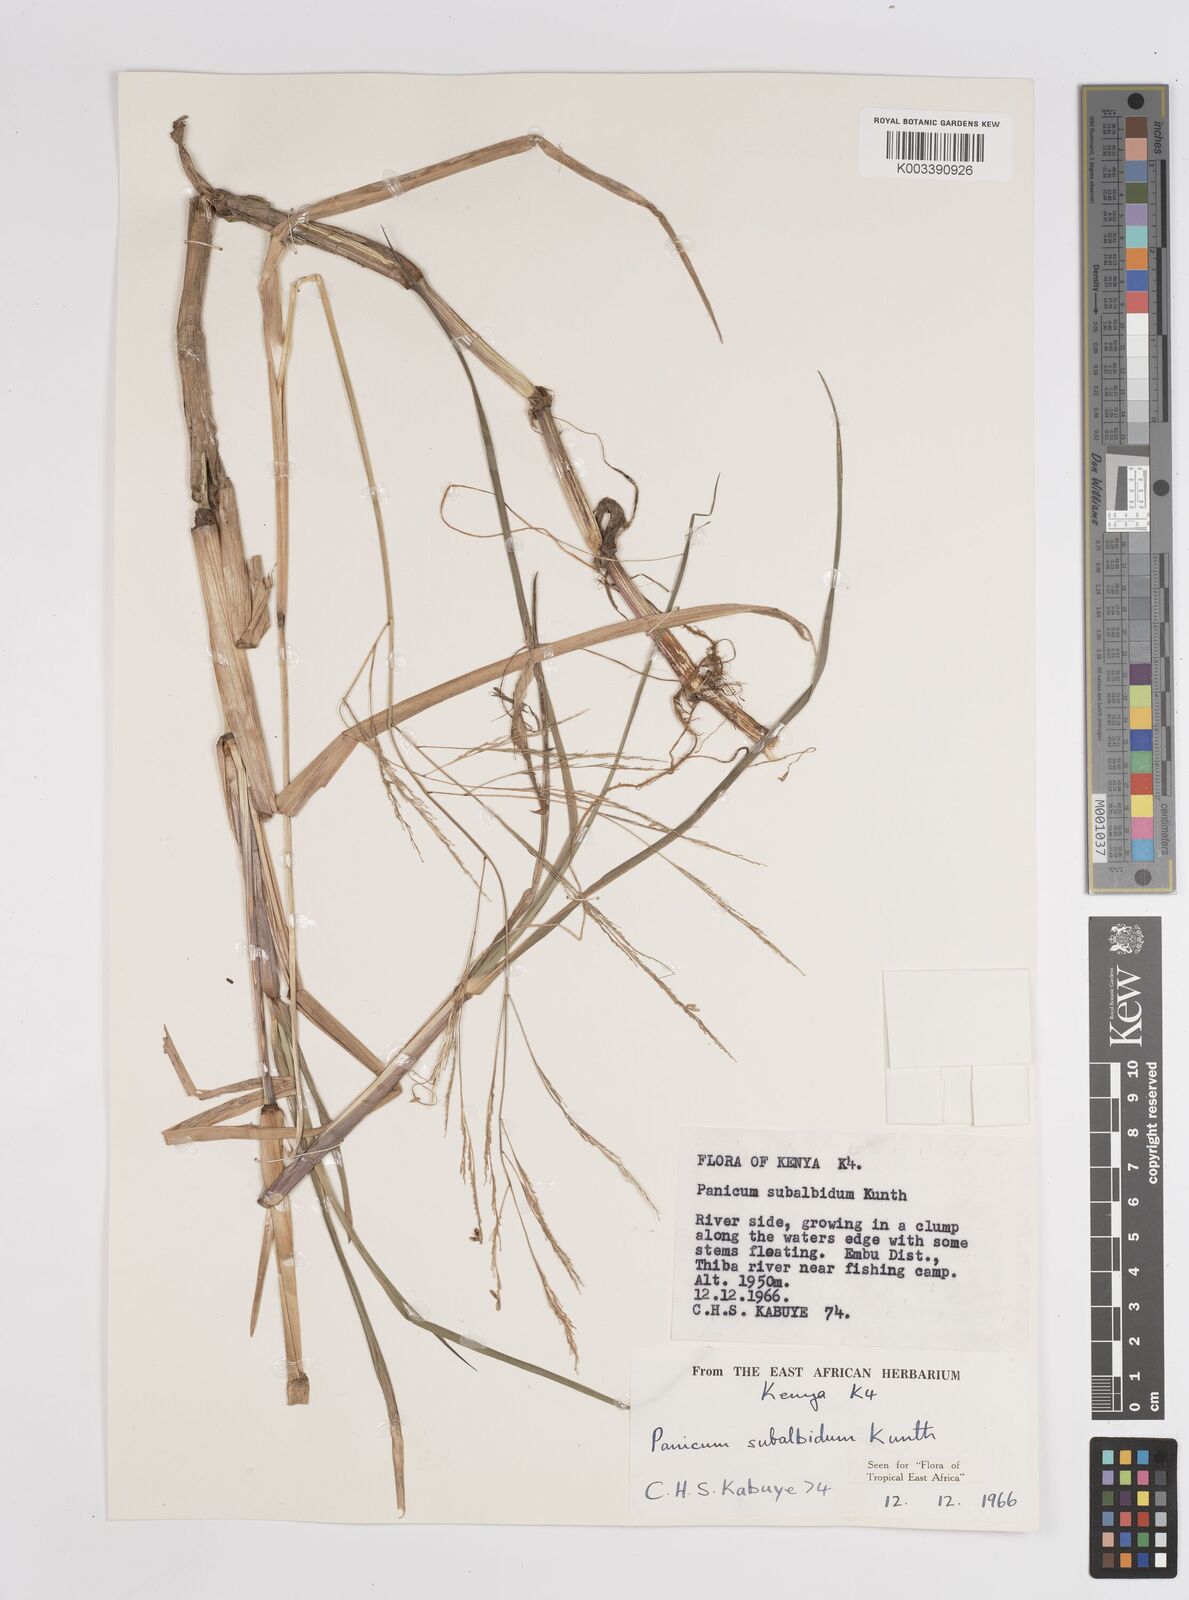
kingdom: Plantae
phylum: Tracheophyta
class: Liliopsida
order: Poales
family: Poaceae
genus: Panicum
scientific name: Panicum subalbidum
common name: Elbow buffalo grass
